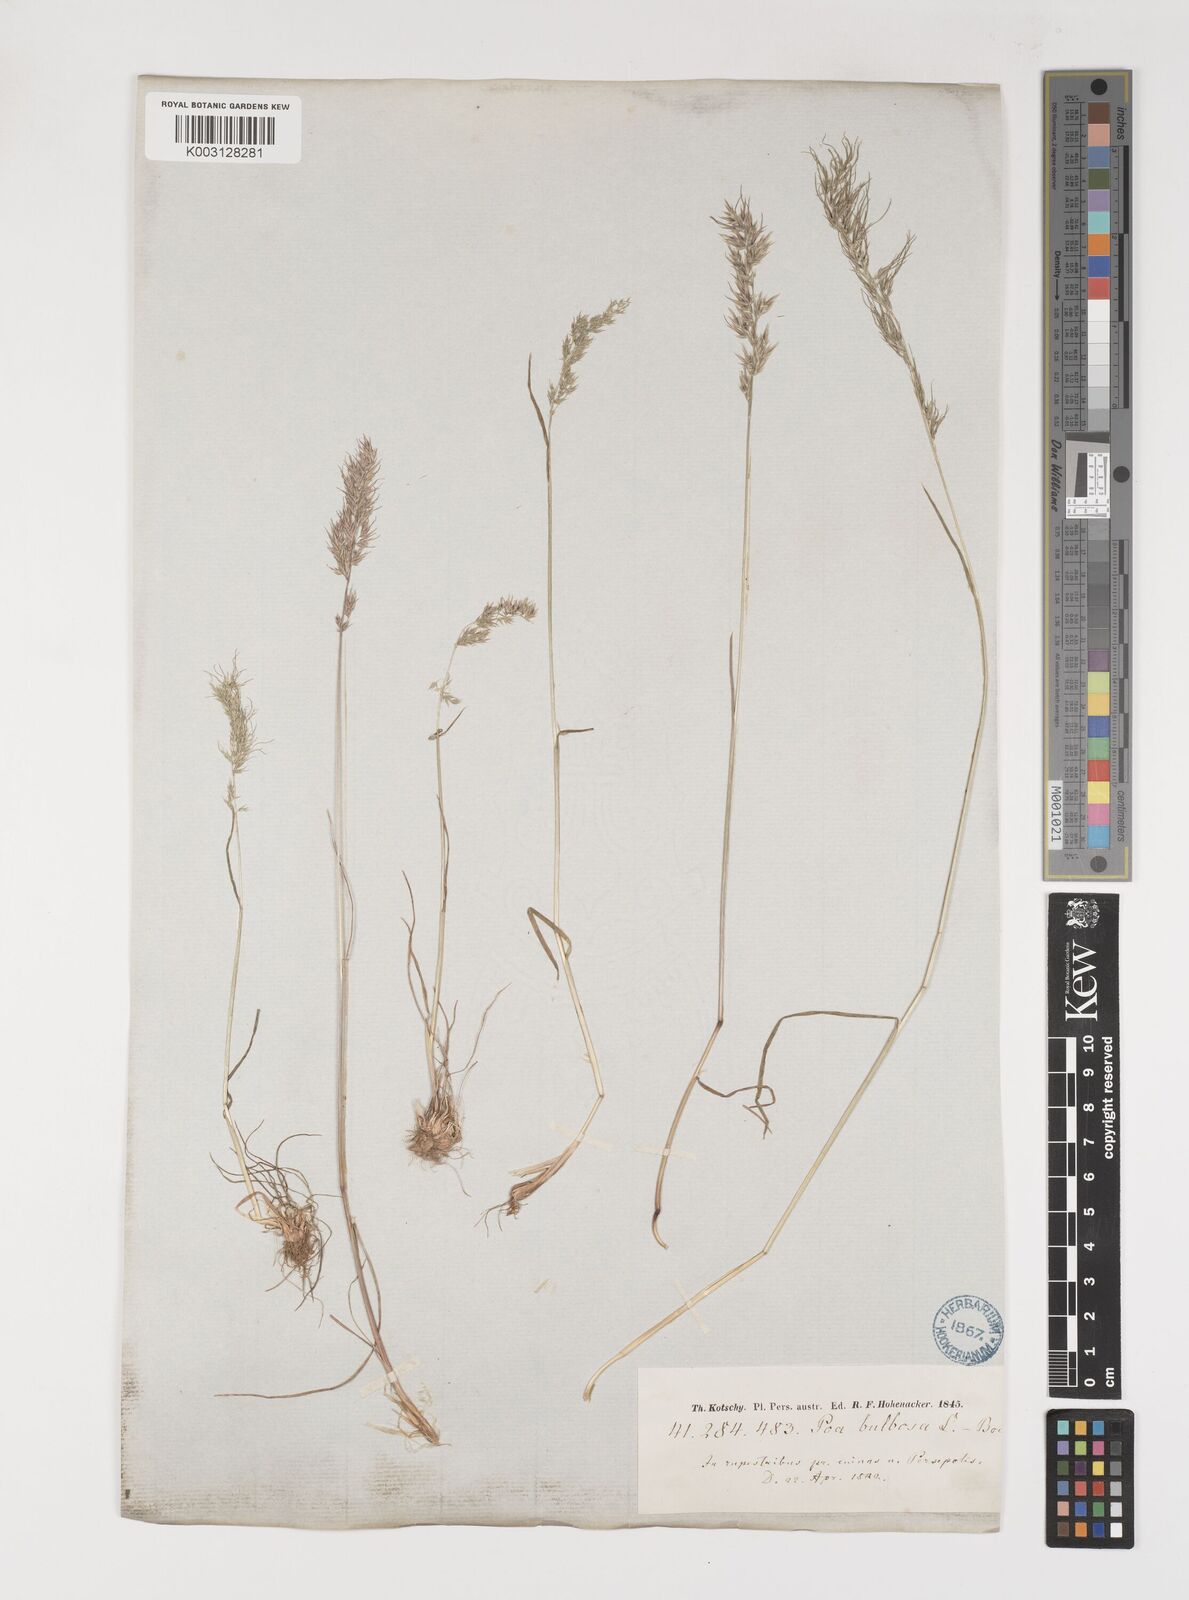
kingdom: Plantae
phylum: Tracheophyta
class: Liliopsida
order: Poales
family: Poaceae
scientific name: Poaceae
